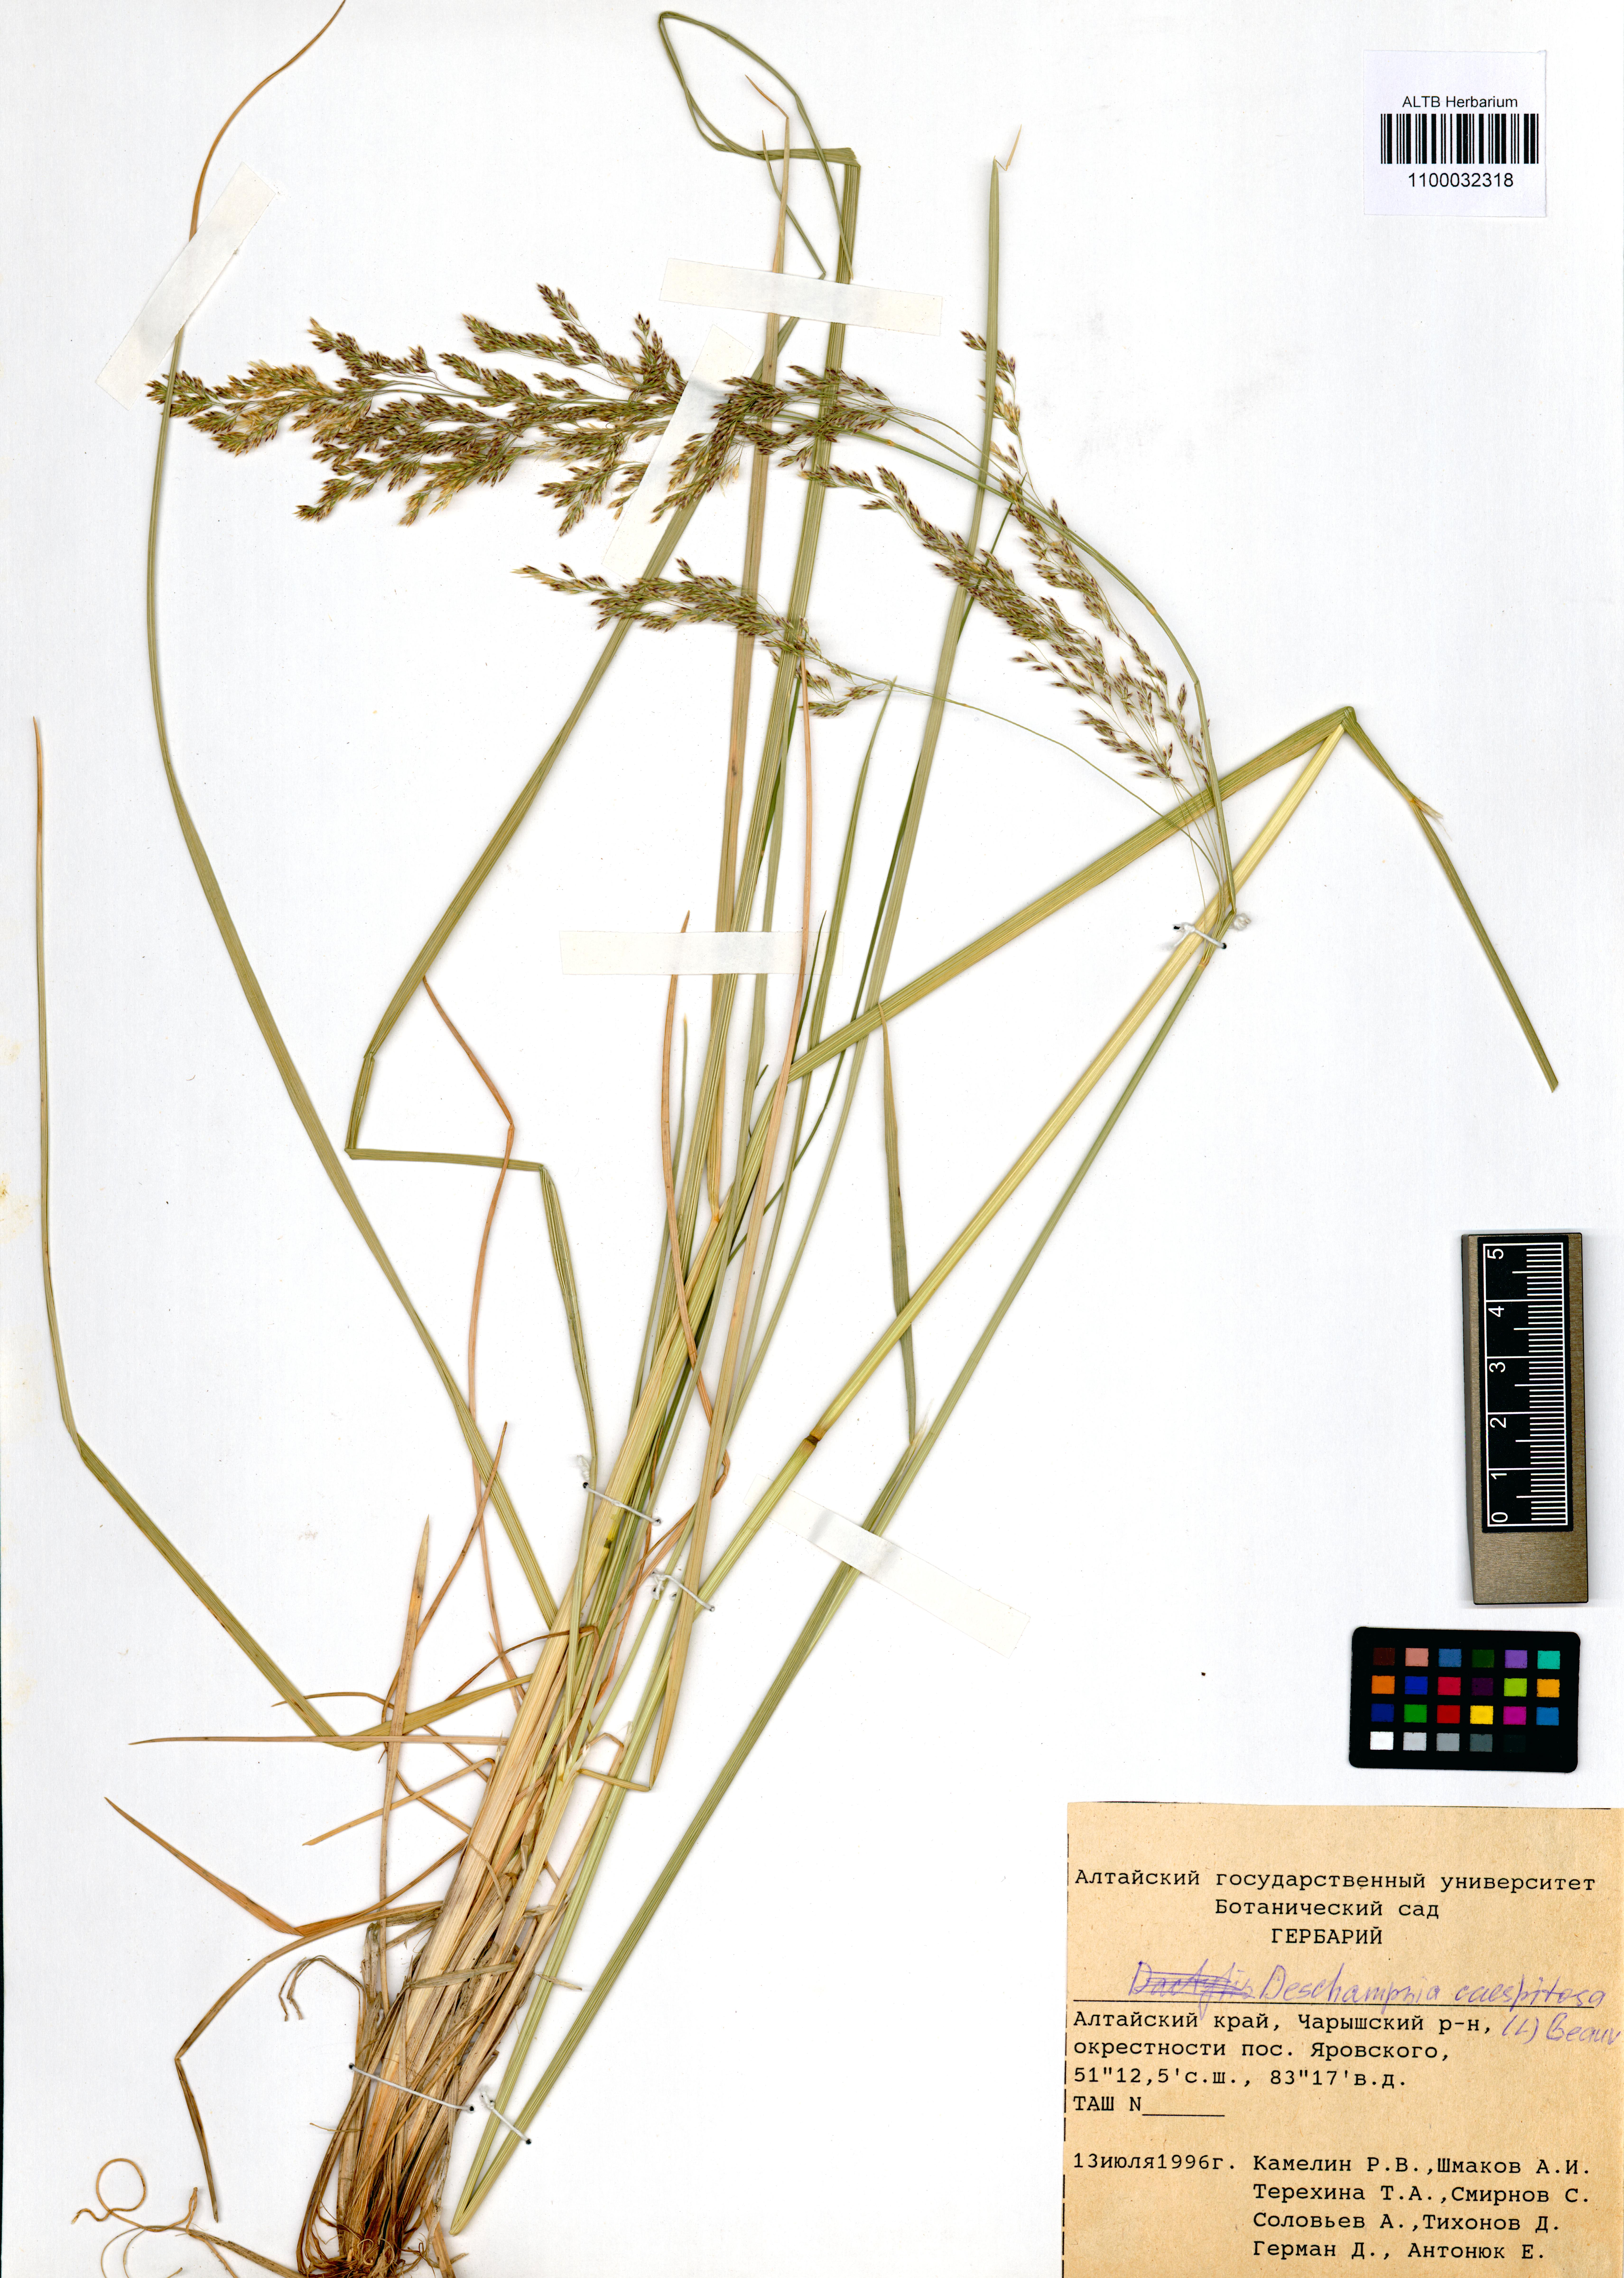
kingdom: Plantae
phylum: Tracheophyta
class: Liliopsida
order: Poales
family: Poaceae
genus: Deschampsia
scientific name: Deschampsia cespitosa
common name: Tufted hair-grass
